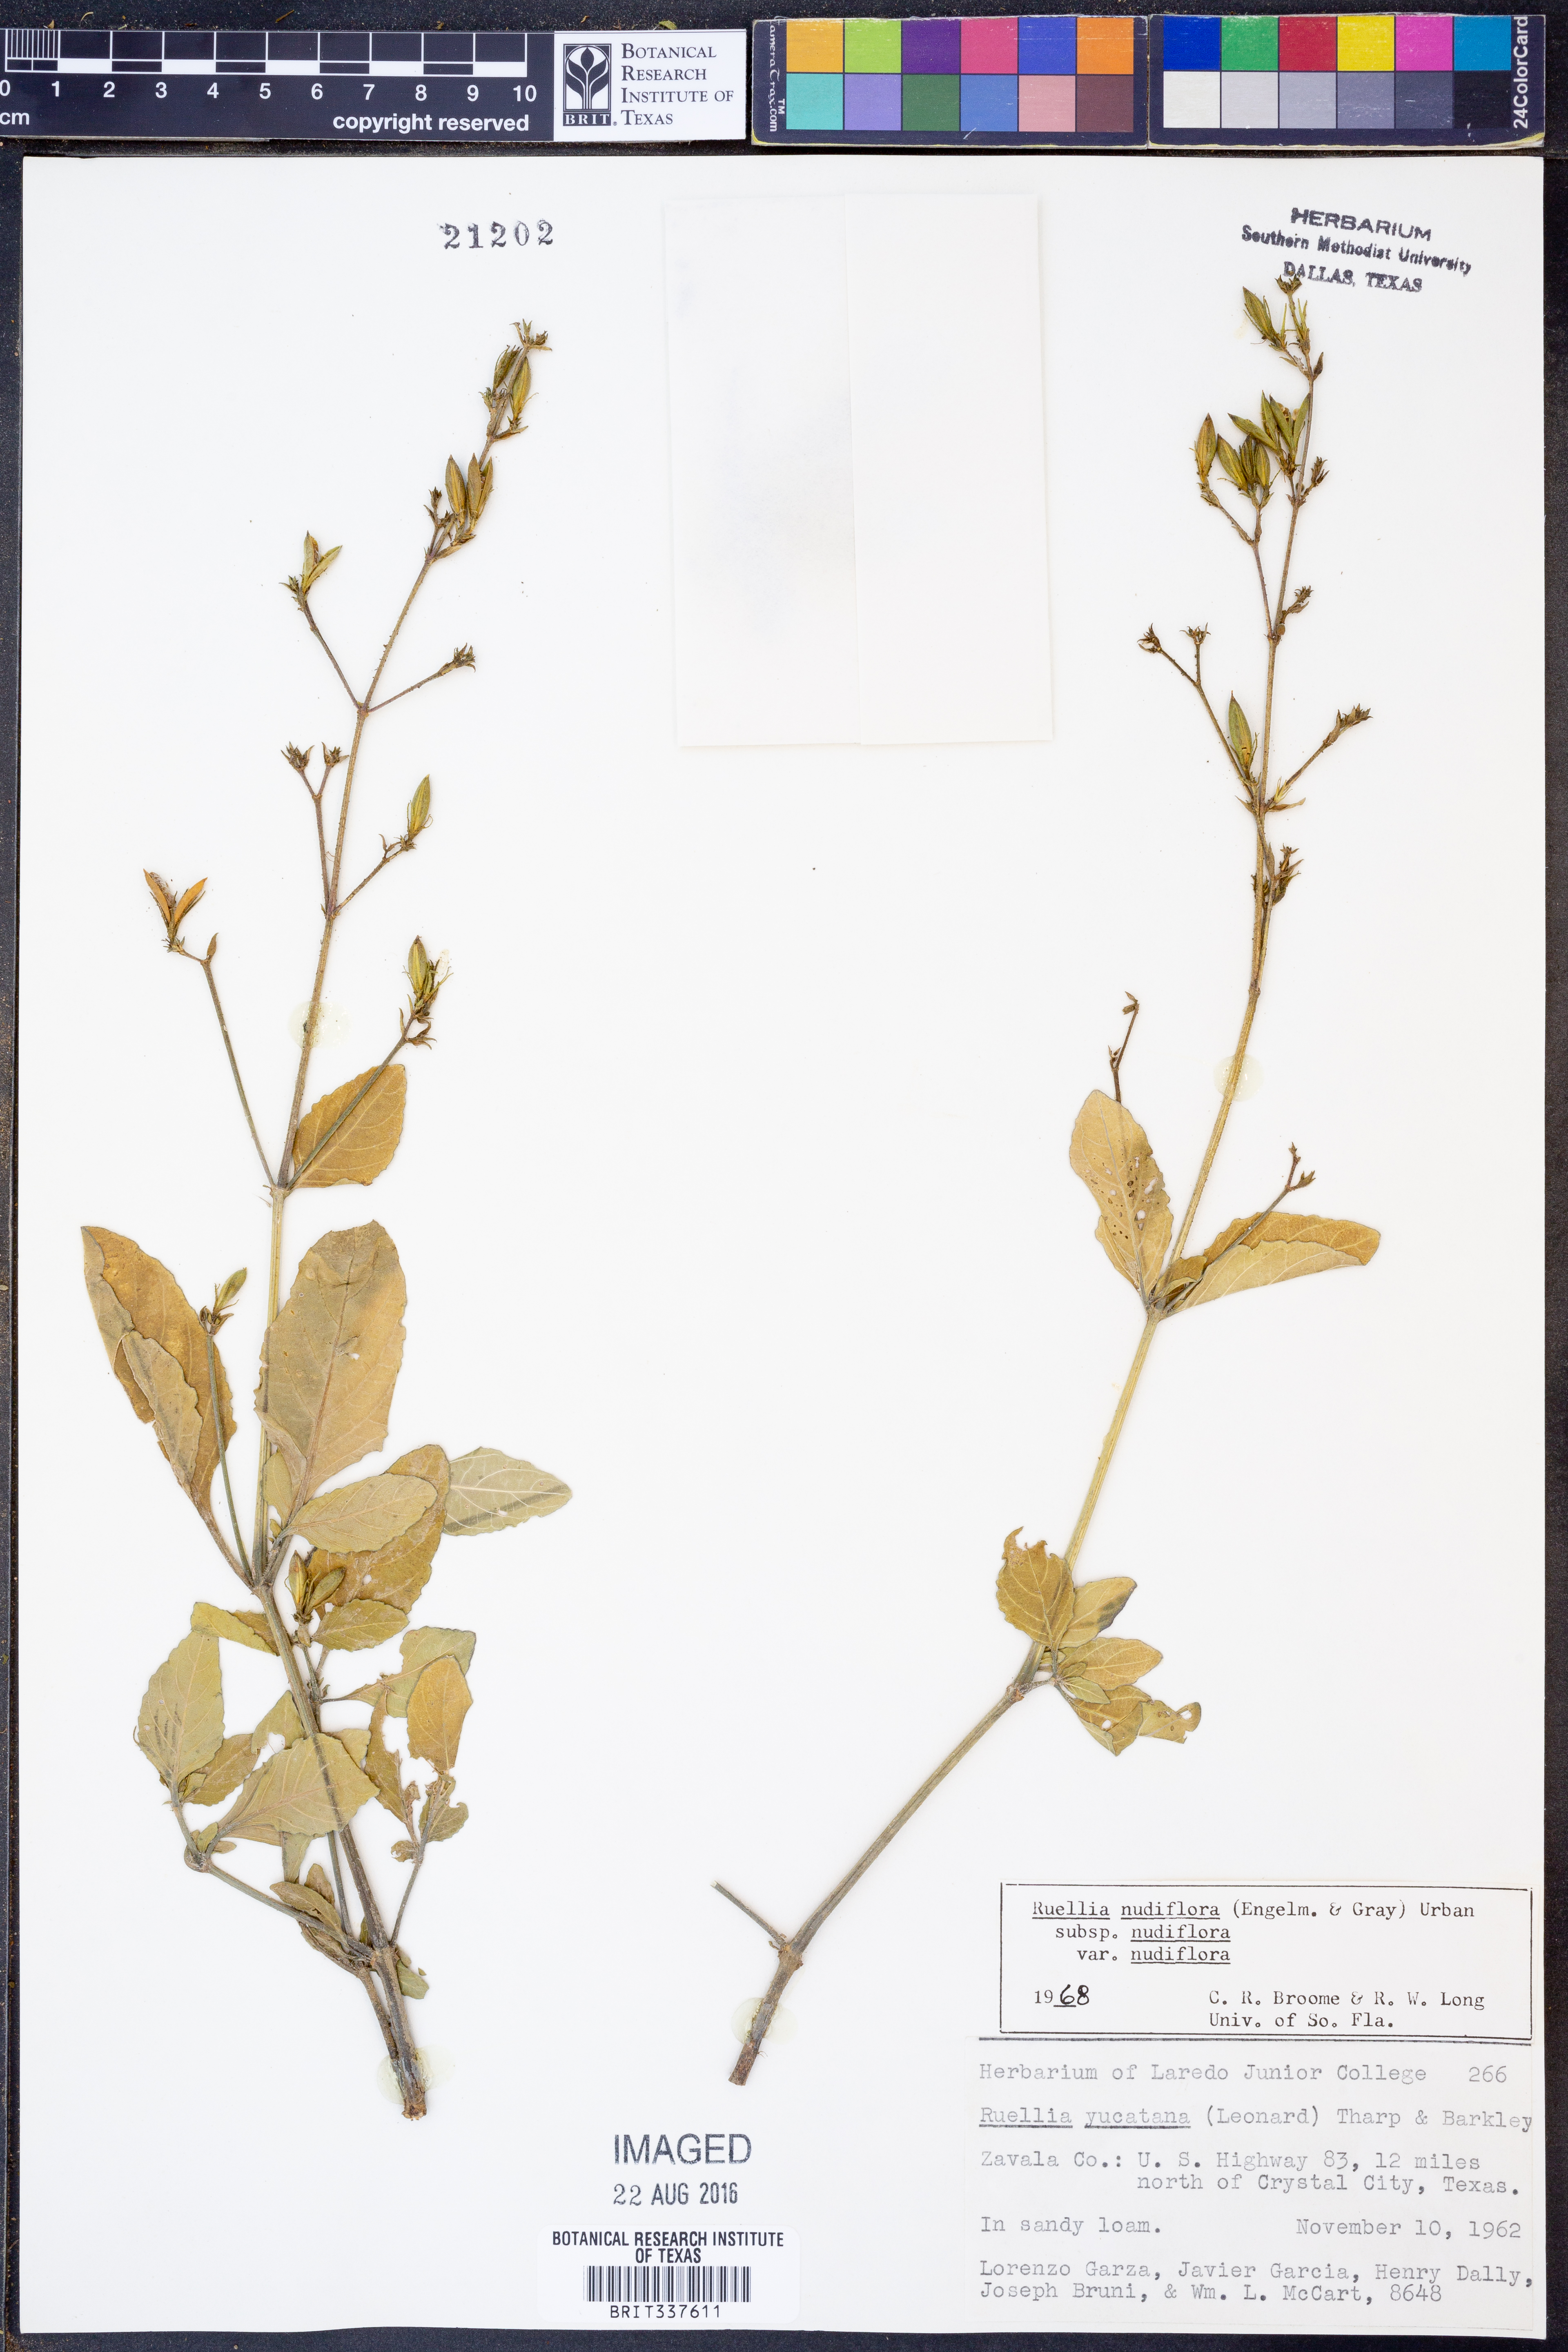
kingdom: Plantae
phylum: Tracheophyta
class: Magnoliopsida
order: Lamiales
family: Acanthaceae
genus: Ruellia
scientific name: Ruellia ciliatiflora
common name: Hairyflower wild petunia
